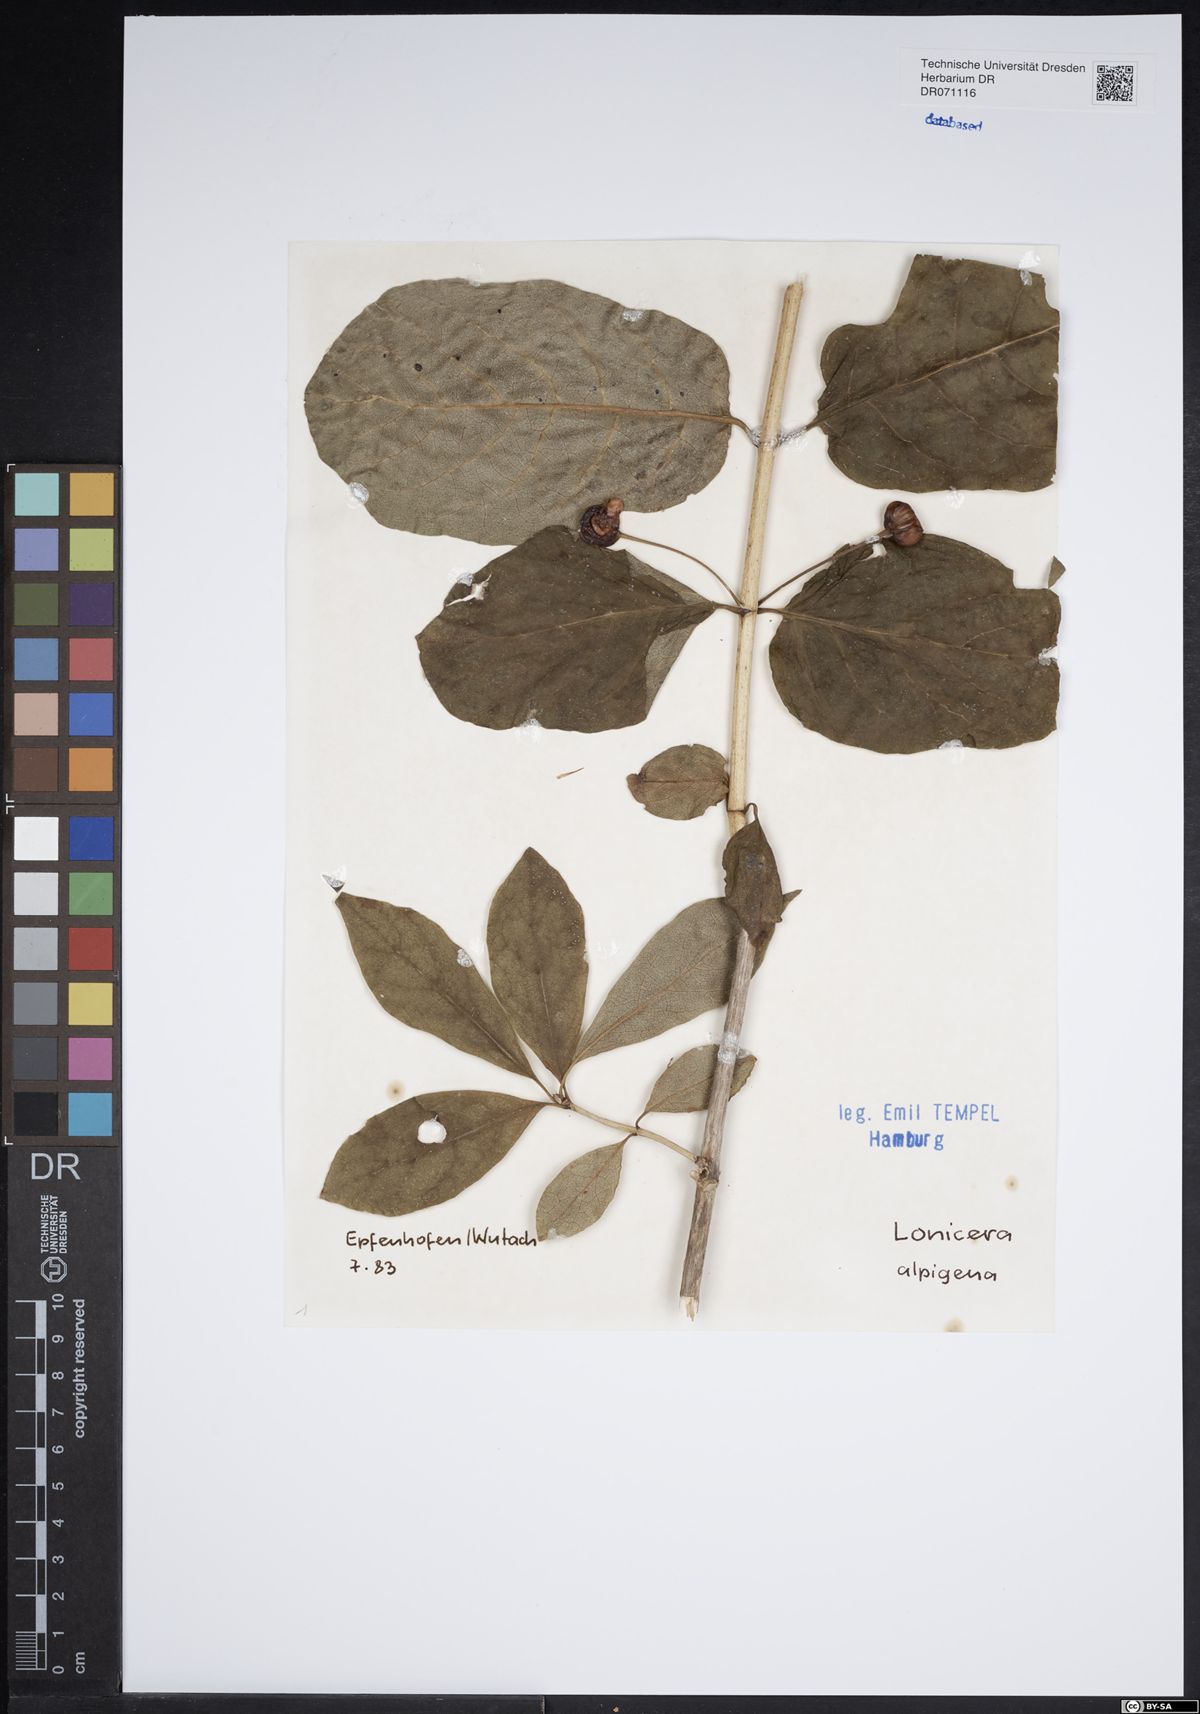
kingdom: Plantae
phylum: Tracheophyta
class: Magnoliopsida
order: Dipsacales
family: Caprifoliaceae
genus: Lonicera
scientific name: Lonicera alpigena
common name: Alpine honeysuckle
